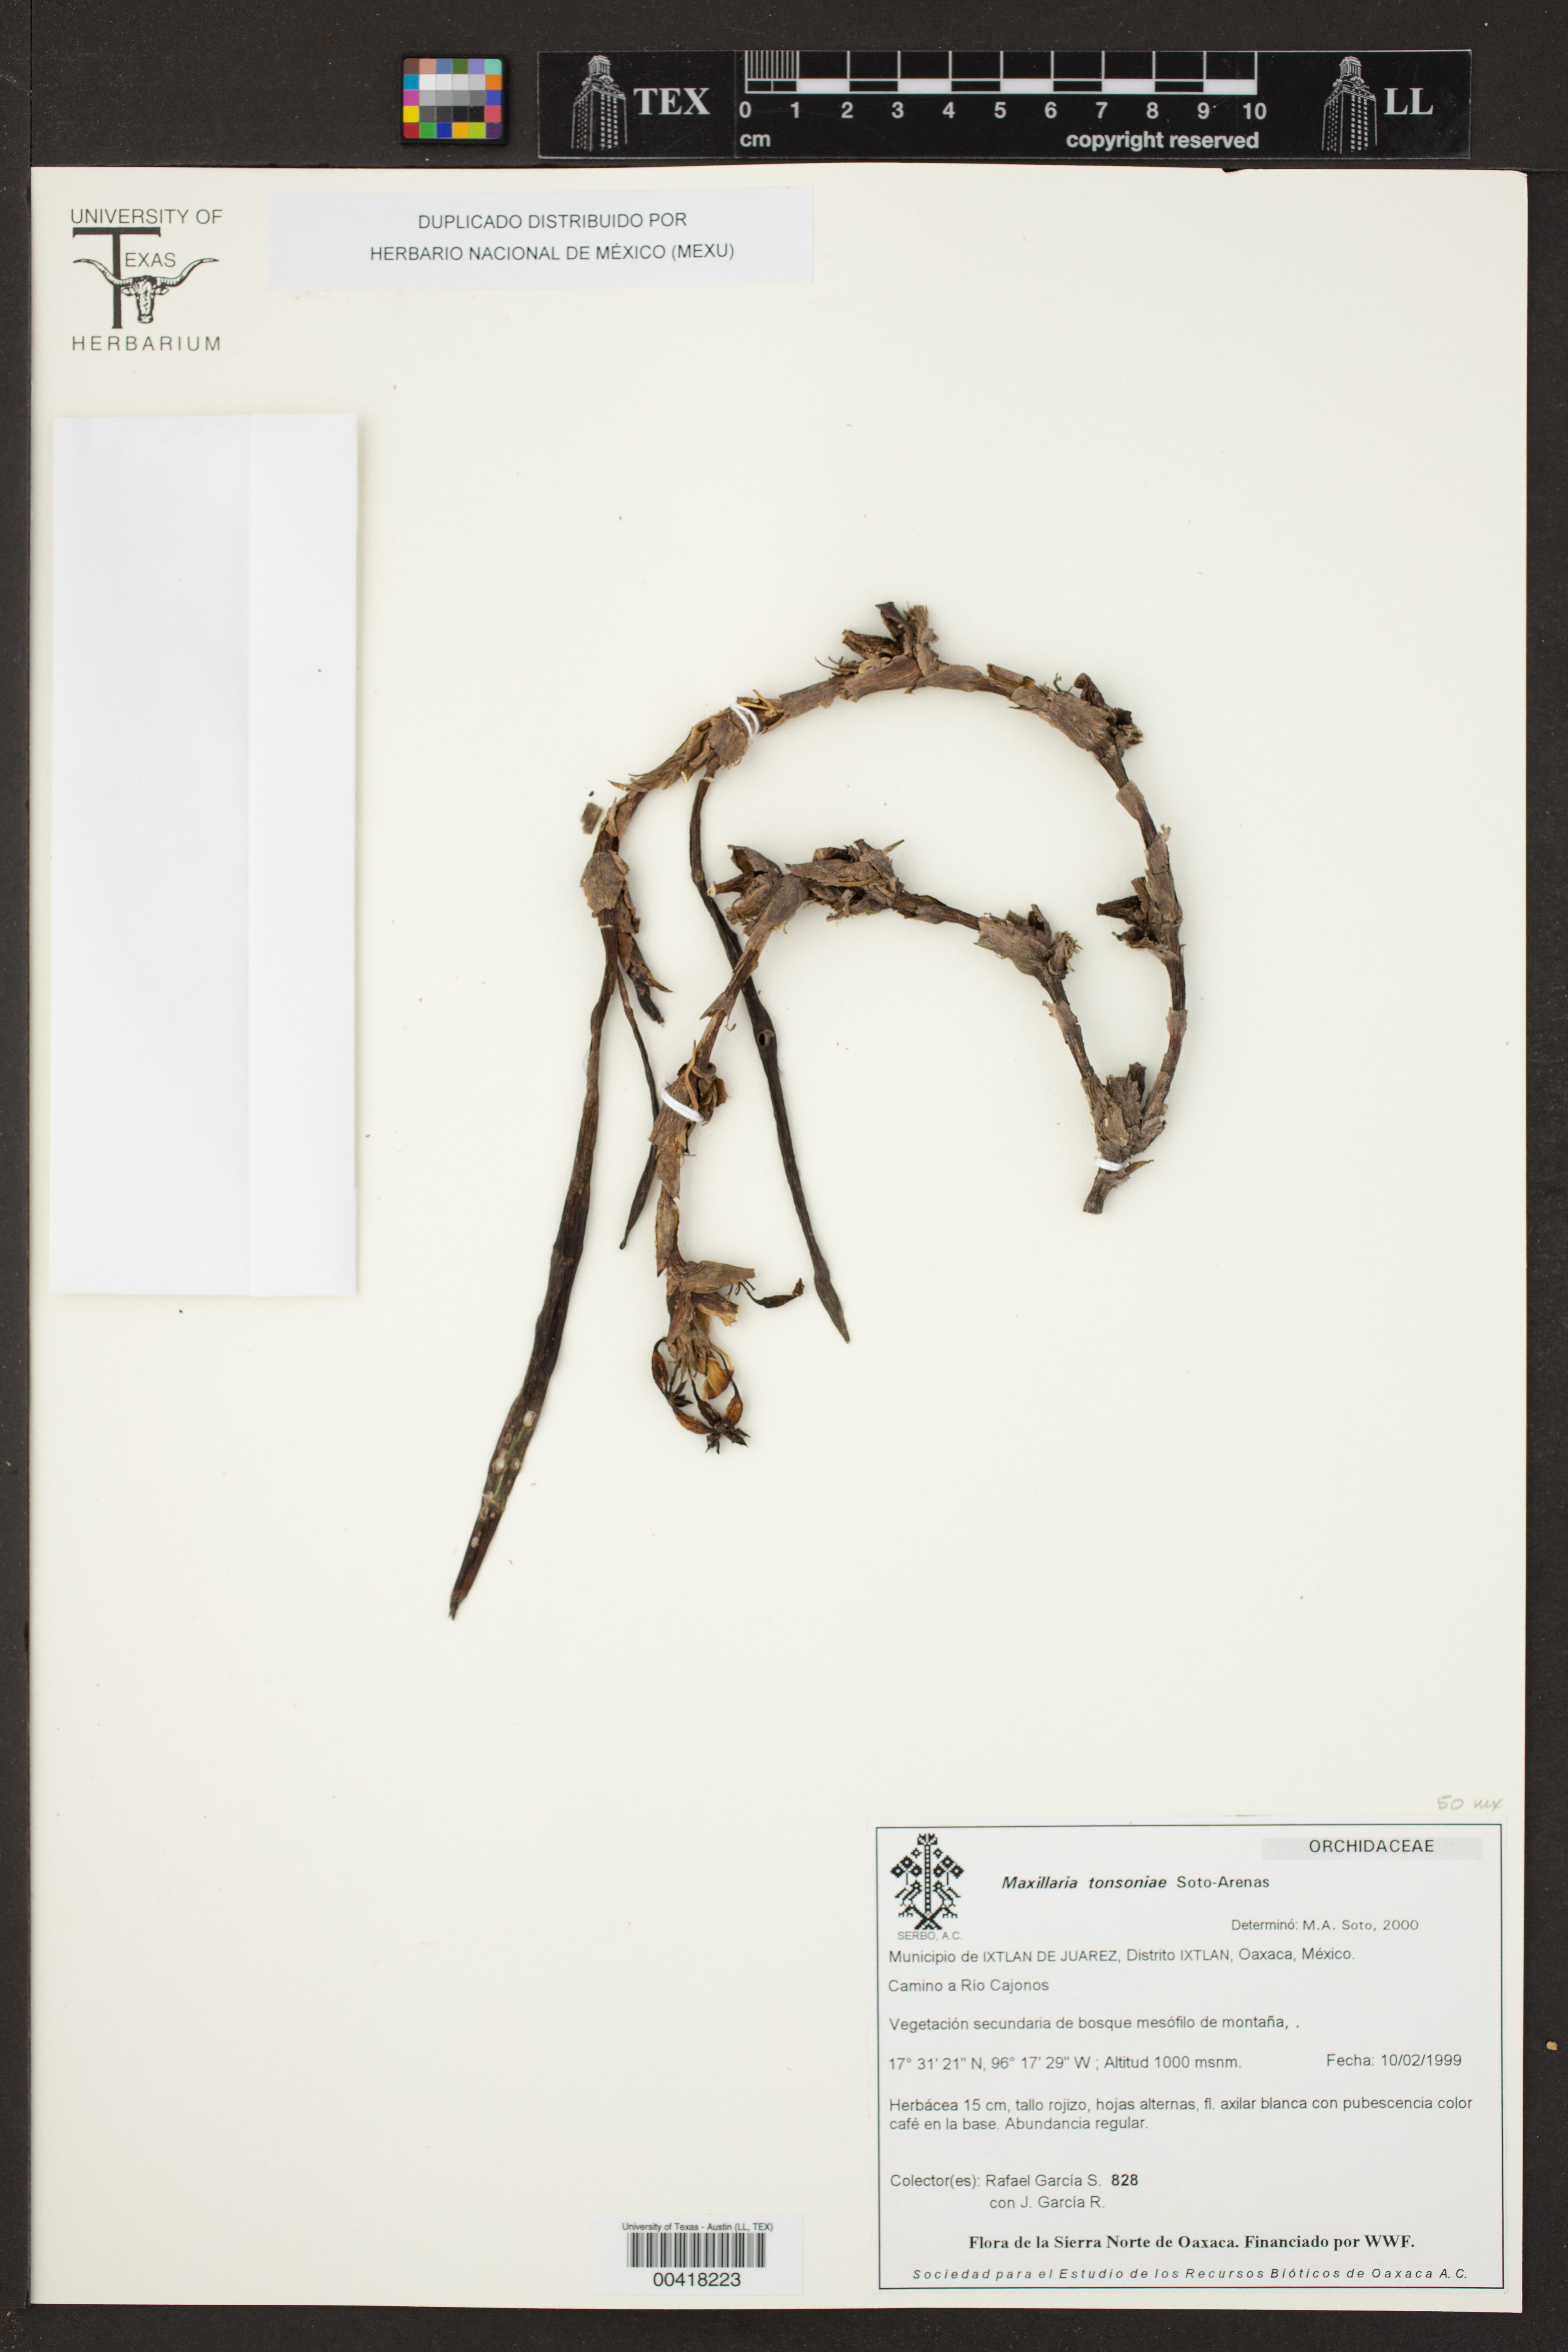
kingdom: Plantae
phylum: Tracheophyta
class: Liliopsida
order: Asparagales
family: Orchidaceae
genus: Maxillaria
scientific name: Maxillaria tonsoniae
